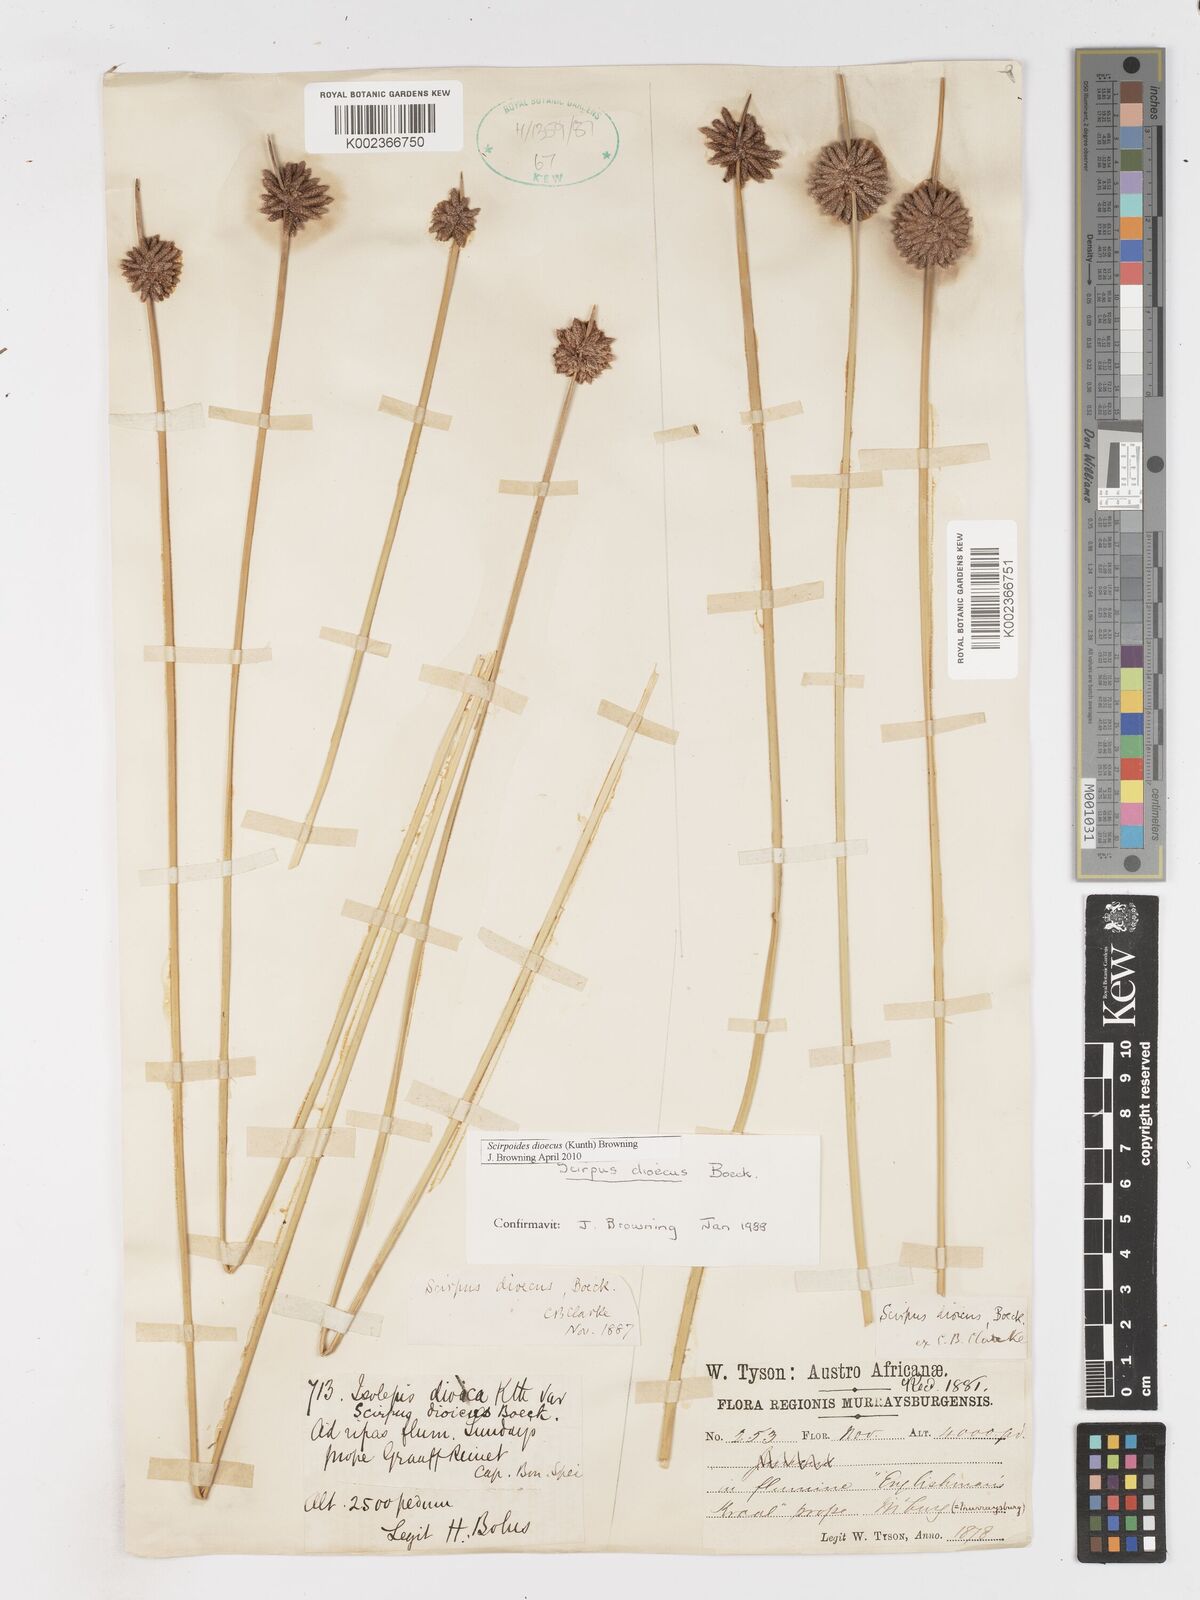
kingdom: Plantae
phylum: Tracheophyta
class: Liliopsida
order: Poales
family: Cyperaceae
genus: Afroscirpoides
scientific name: Afroscirpoides dioeca
